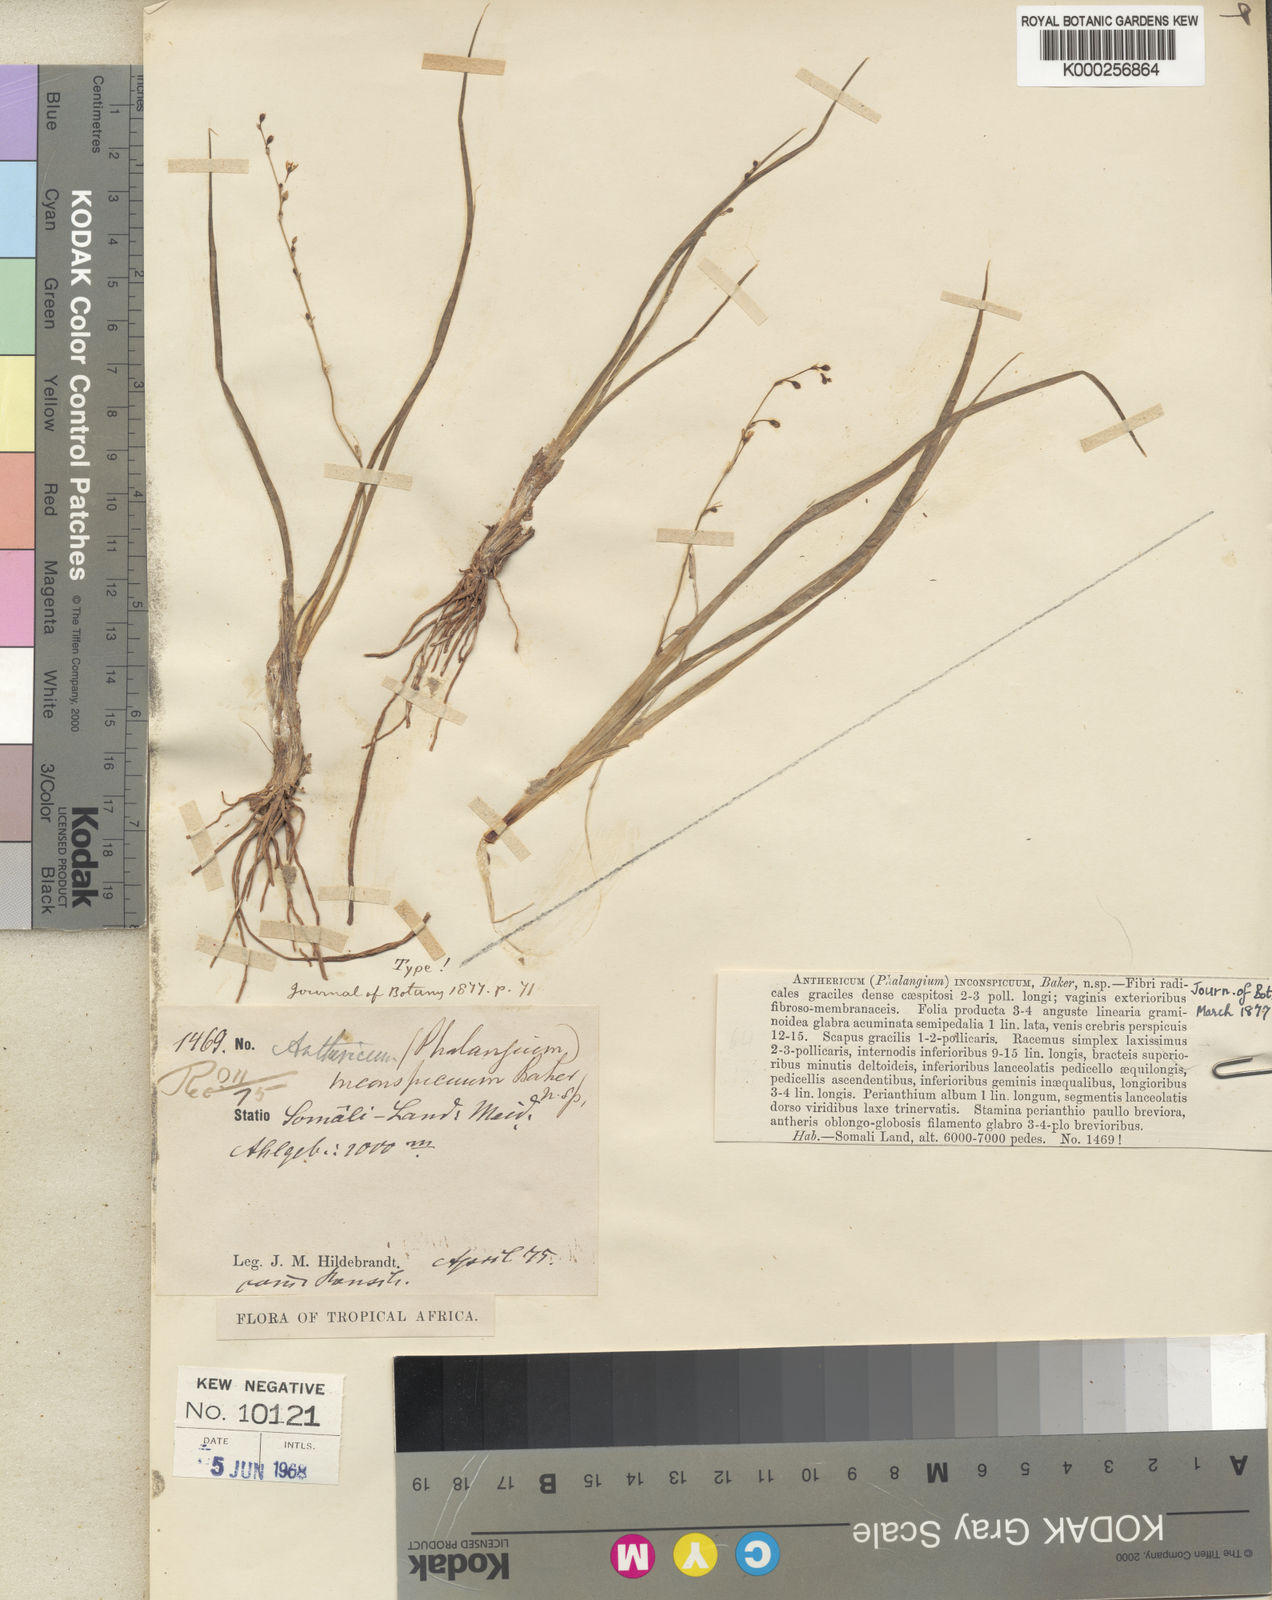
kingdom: Plantae
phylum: Tracheophyta
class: Liliopsida
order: Asparagales
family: Asparagaceae
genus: Chlorophytum
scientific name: Chlorophytum inconspicuum
